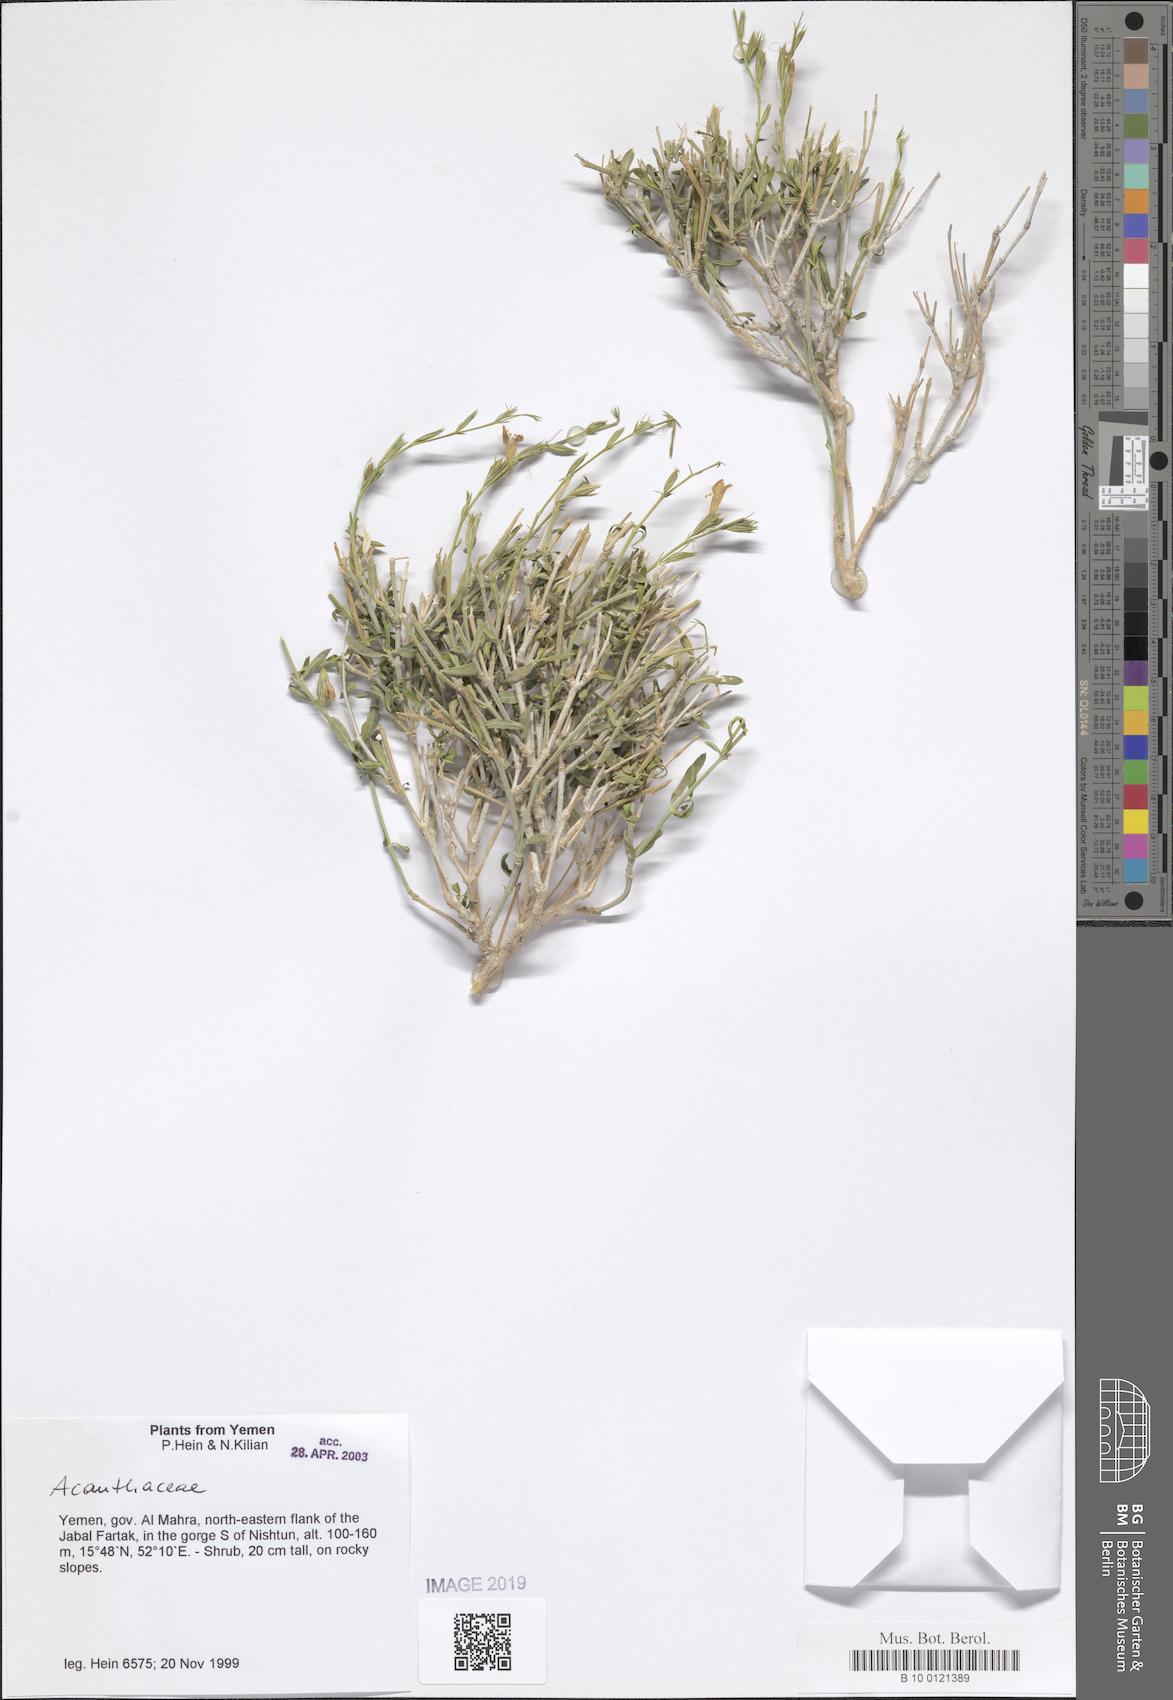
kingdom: Plantae
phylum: Tracheophyta
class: Magnoliopsida
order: Lamiales
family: Acanthaceae
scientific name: Acanthaceae
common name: Acanthaceae
